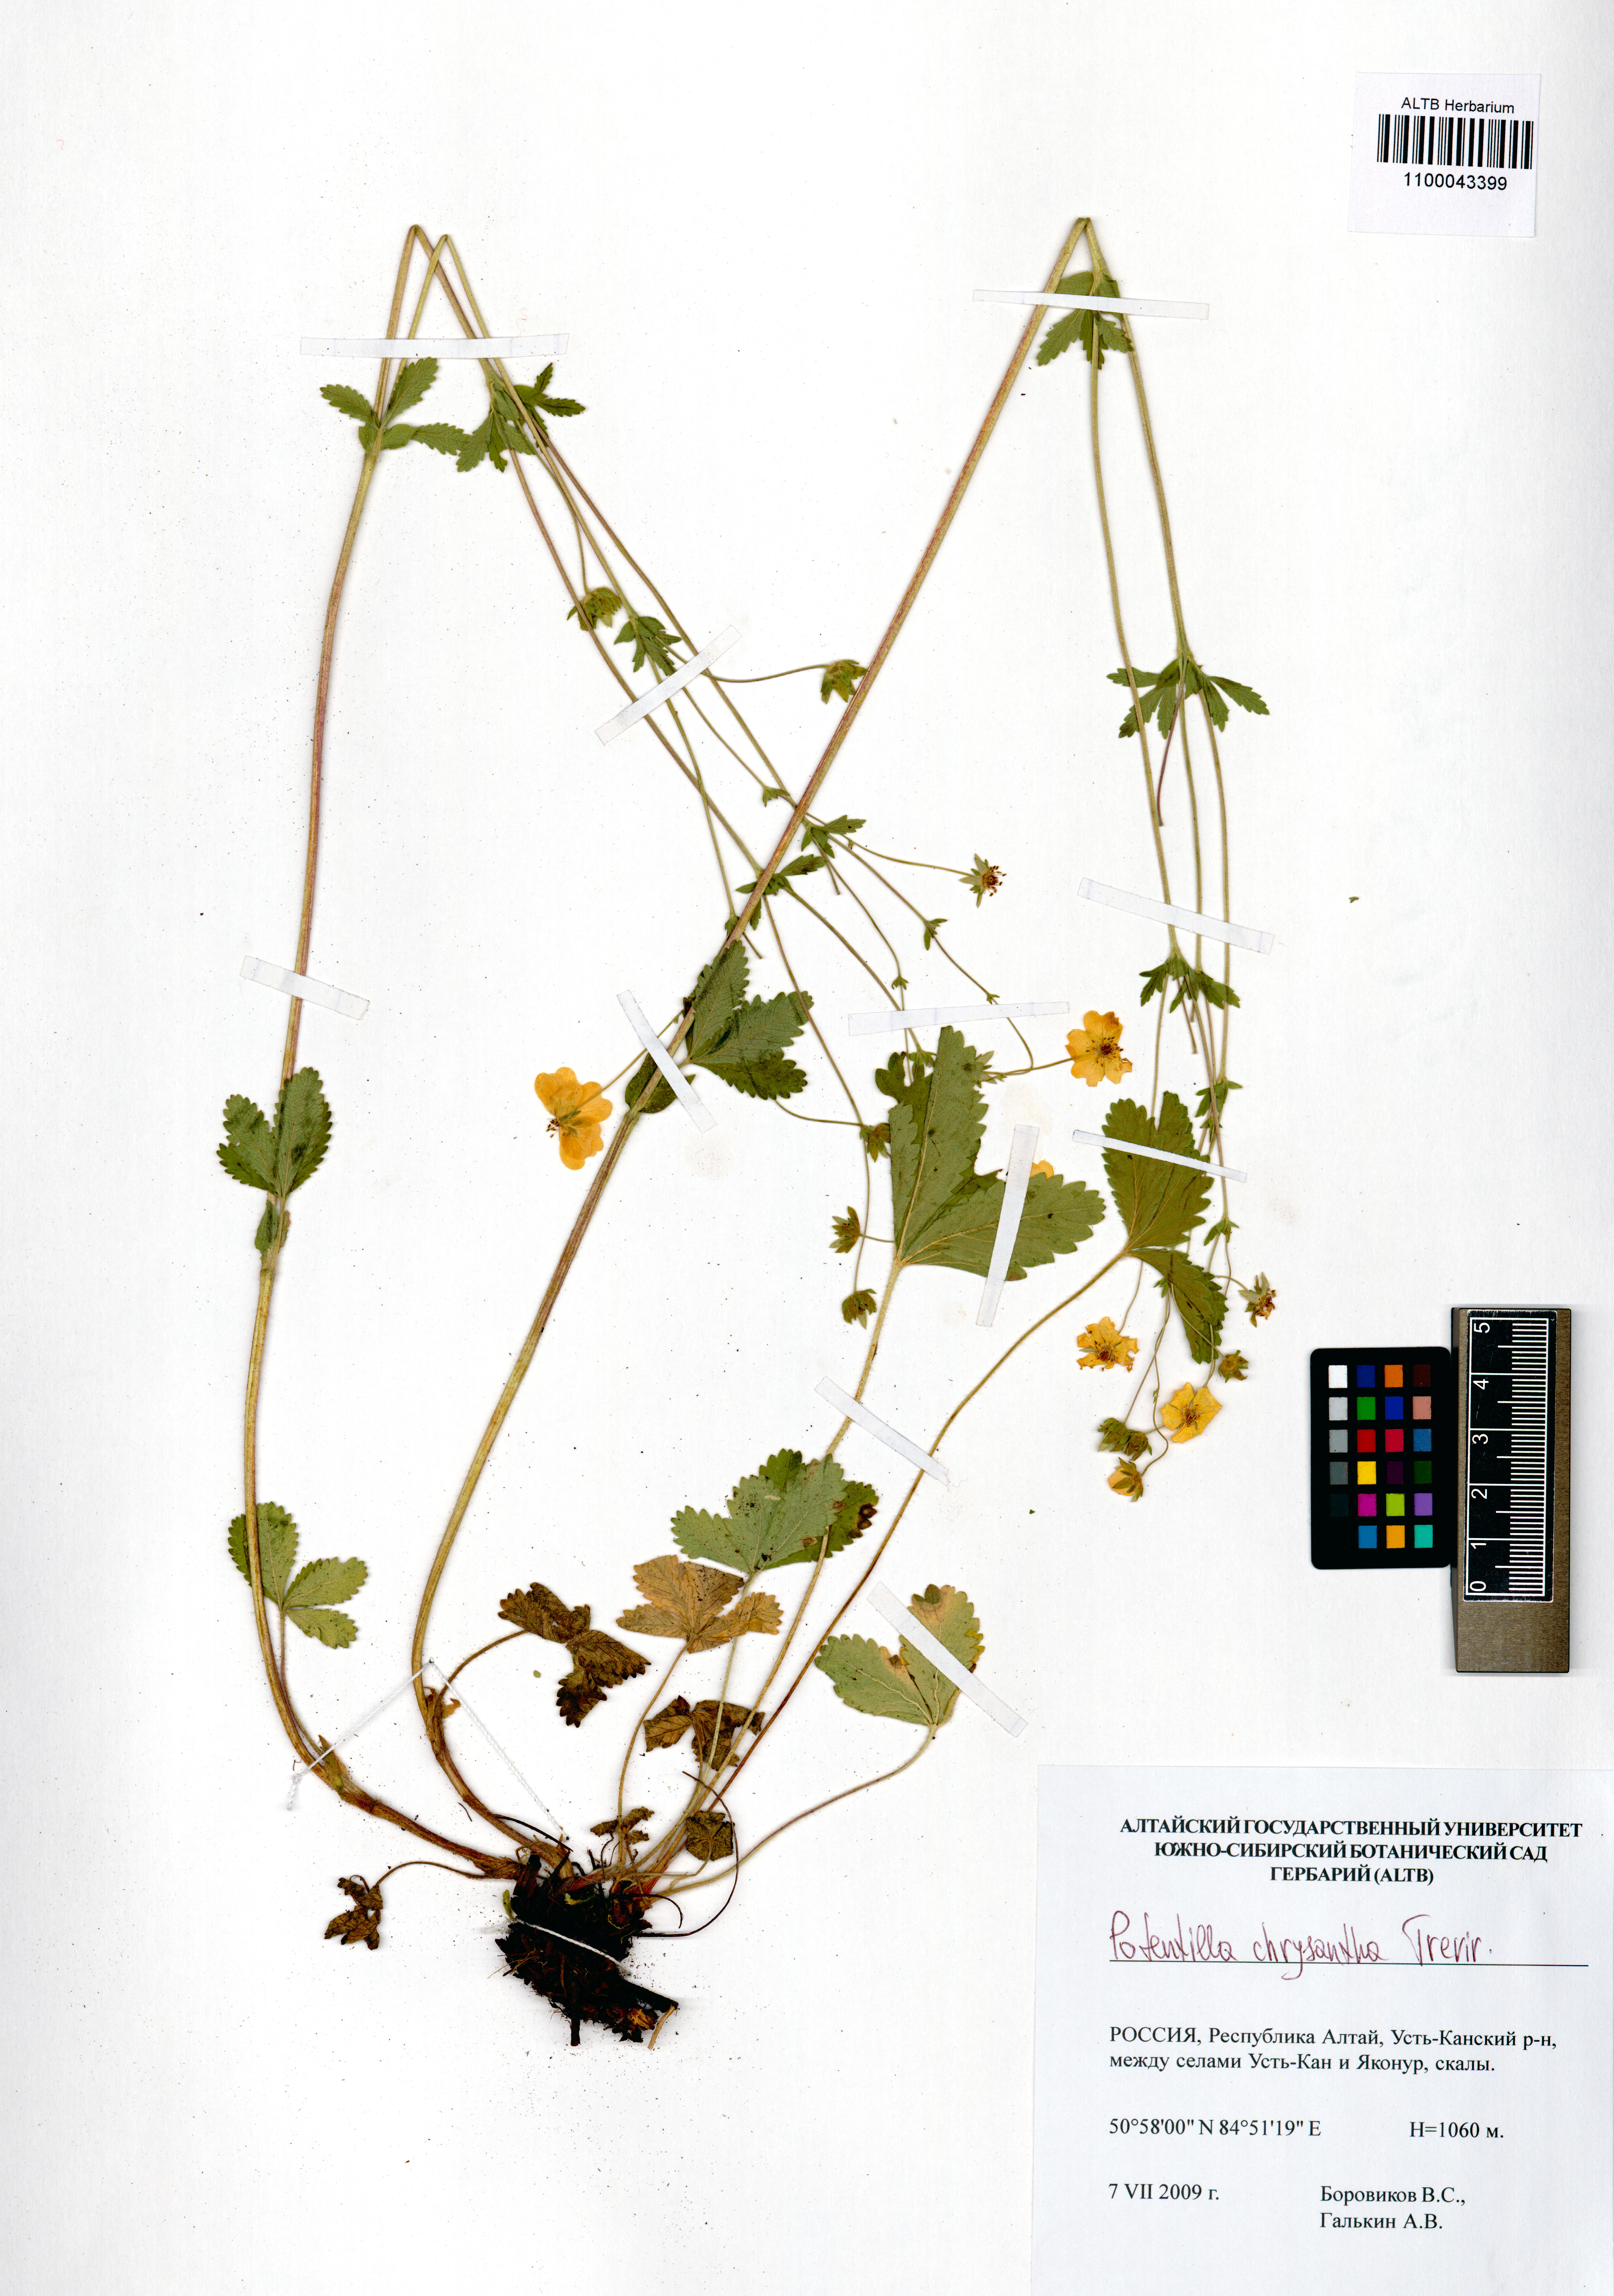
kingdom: Plantae
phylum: Tracheophyta
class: Magnoliopsida
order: Rosales
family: Rosaceae
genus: Potentilla
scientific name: Potentilla chrysantha
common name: Thuringian cinquefoil
